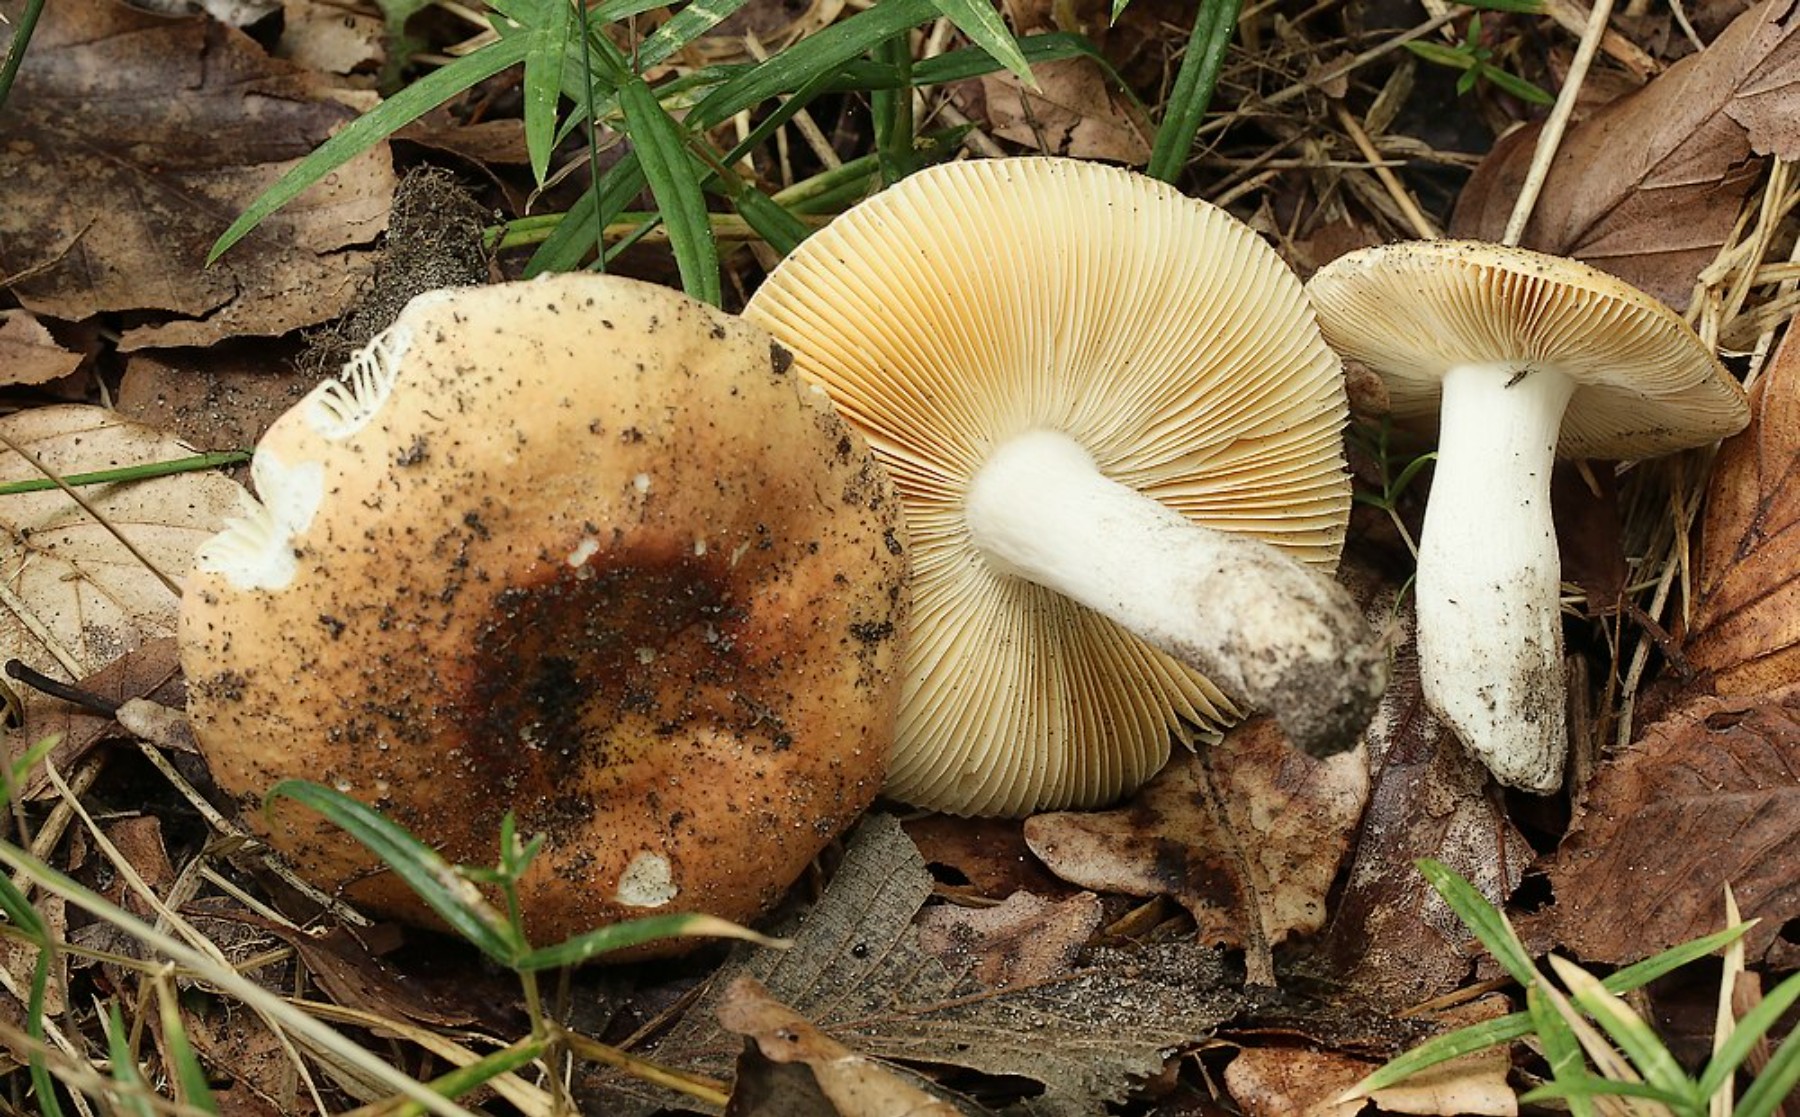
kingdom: Fungi
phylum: Basidiomycota
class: Agaricomycetes
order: Russulales
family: Russulaceae
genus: Russula
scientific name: Russula risigallina
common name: abrikos-skørhat
